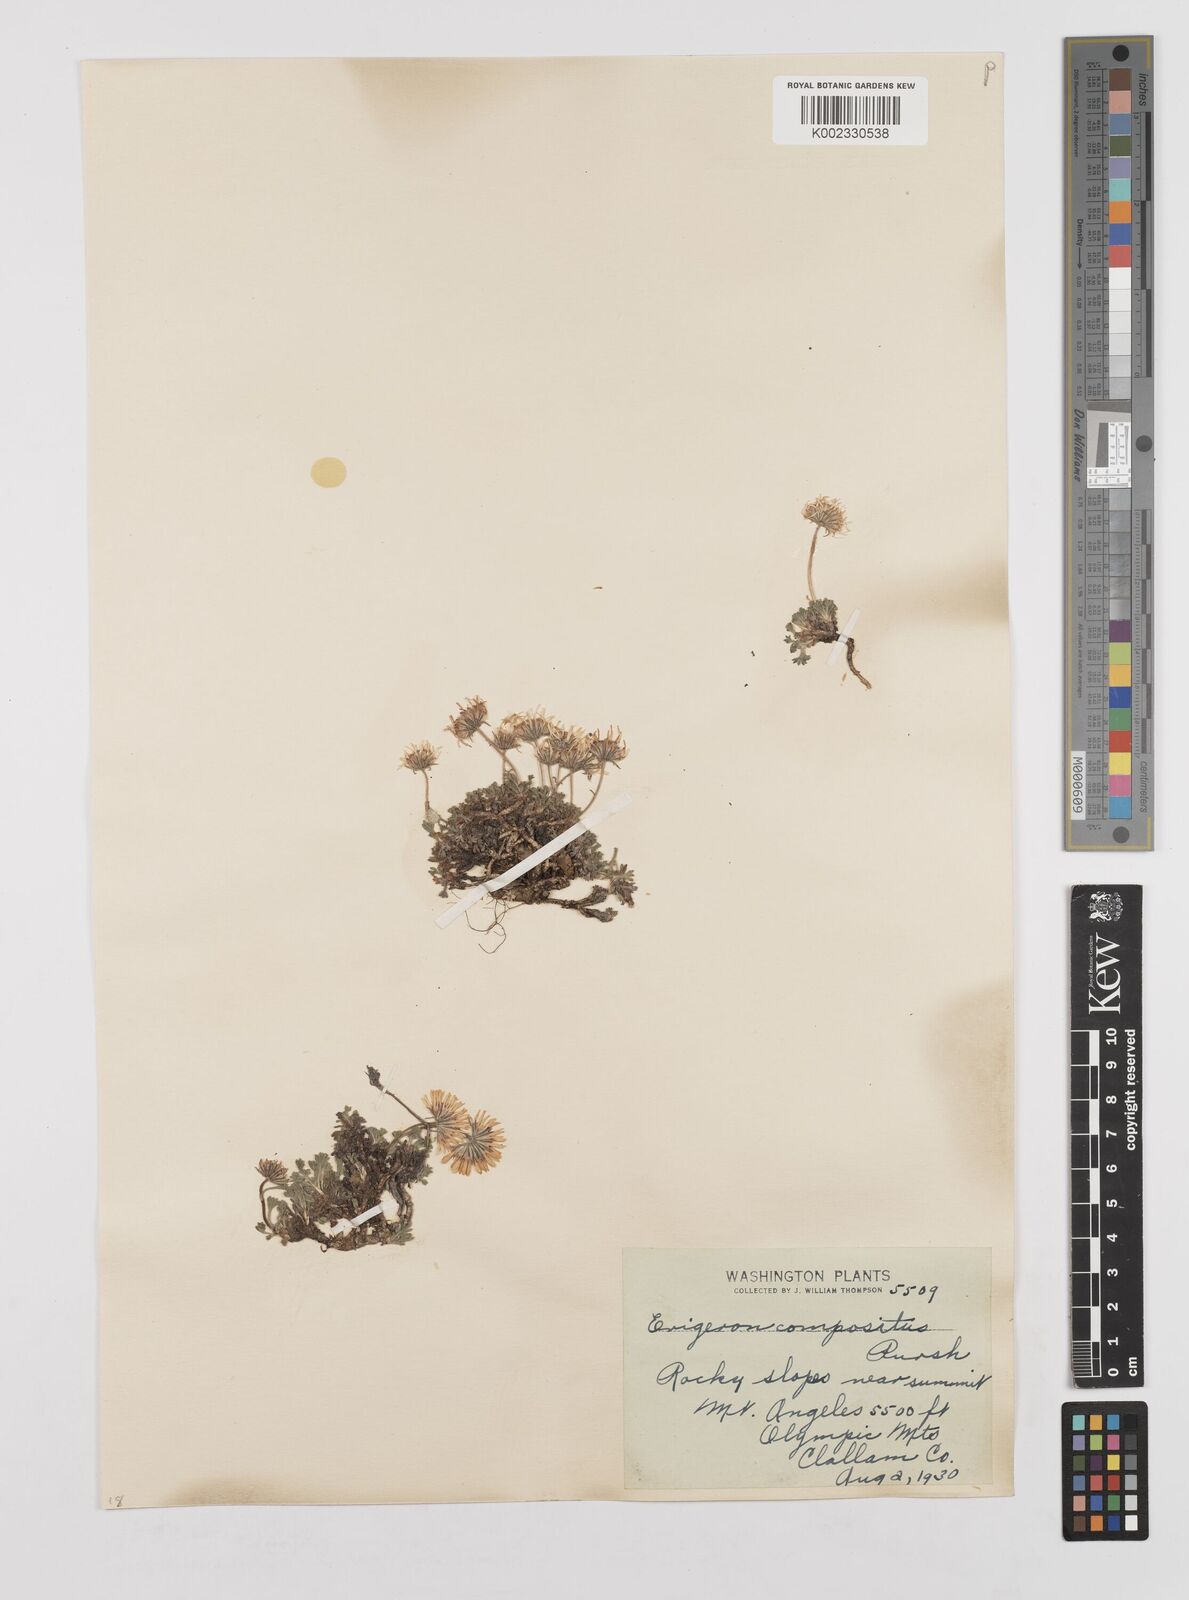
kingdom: Plantae
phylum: Tracheophyta
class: Magnoliopsida
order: Asterales
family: Asteraceae
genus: Erigeron
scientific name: Erigeron compositus
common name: Dwarf mountain fleabane
